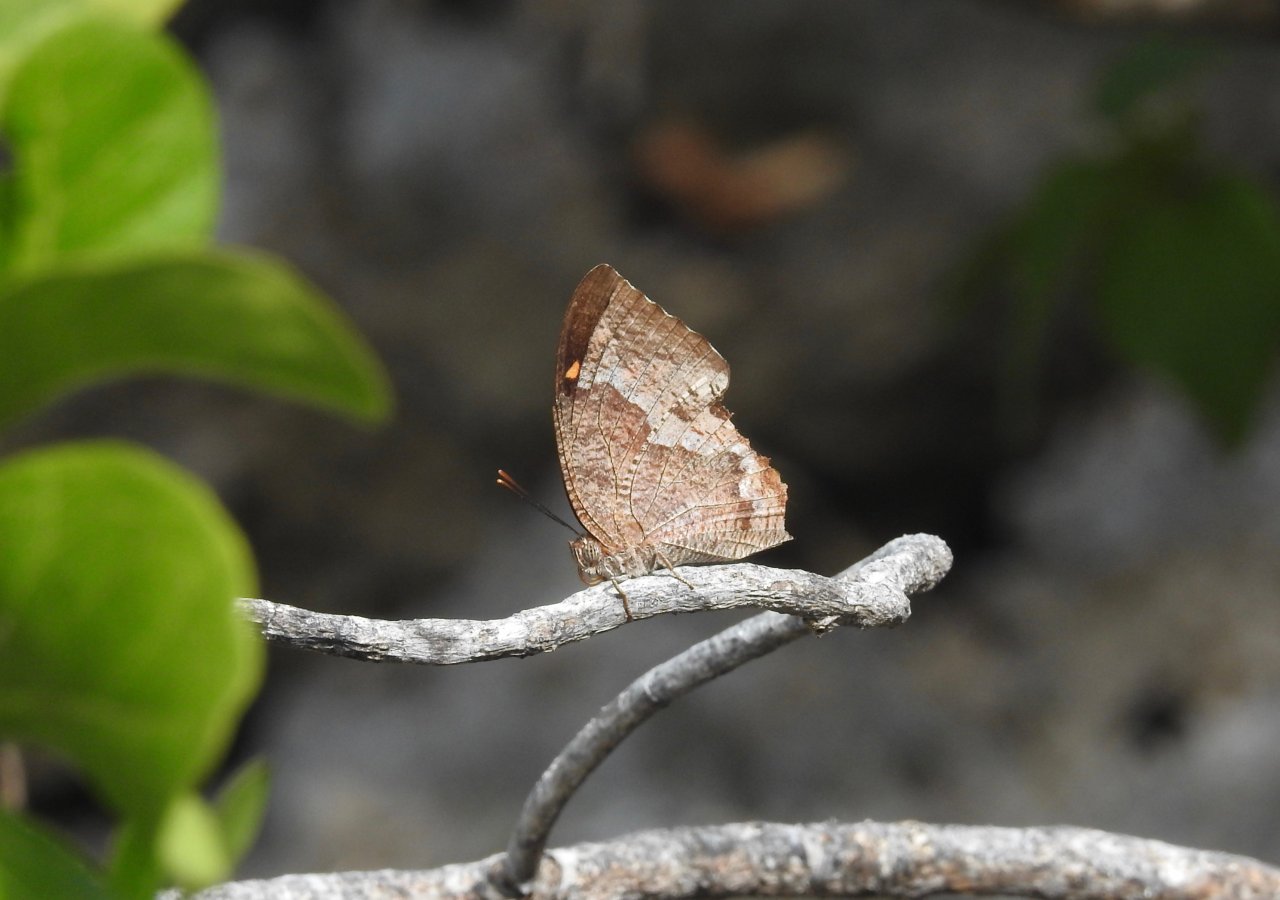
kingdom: Animalia
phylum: Arthropoda
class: Insecta
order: Lepidoptera
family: Nymphalidae
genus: Anaea
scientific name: Anaea verticordia
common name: Hispaniolan Leafwing
